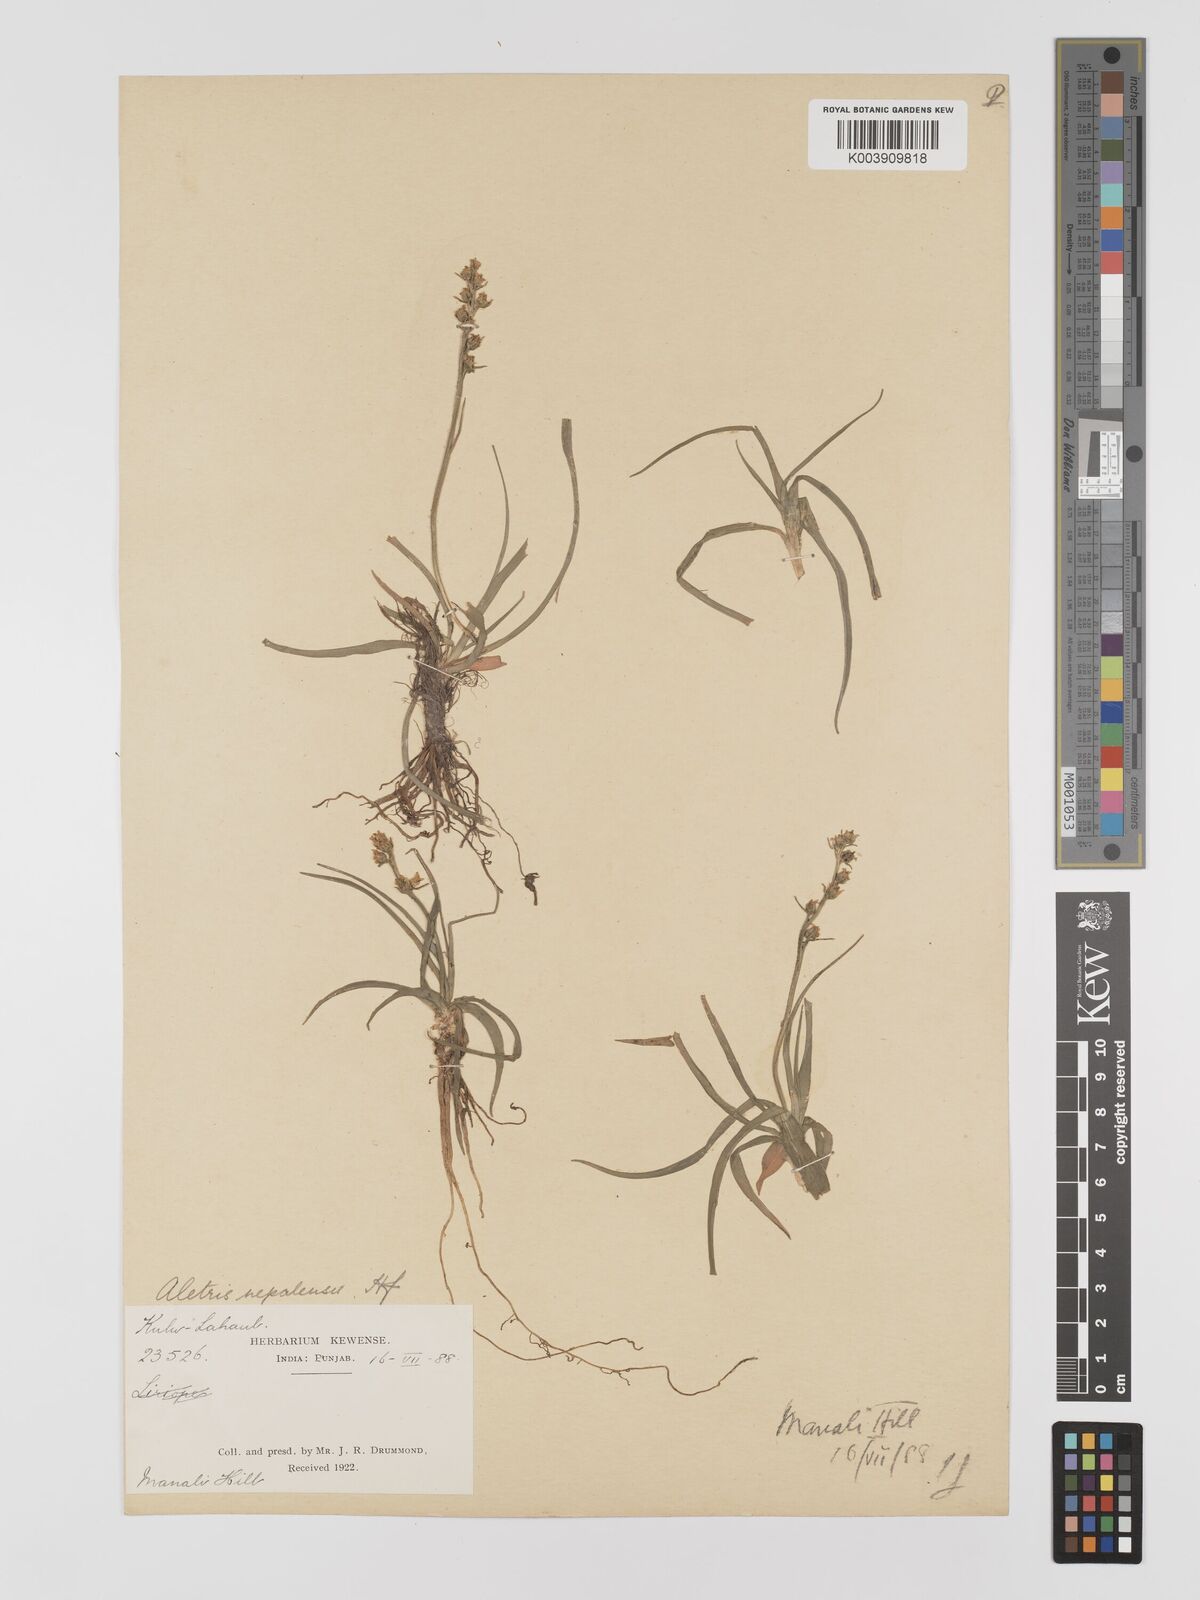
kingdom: Plantae
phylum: Tracheophyta
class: Liliopsida
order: Dioscoreales
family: Nartheciaceae
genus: Aletris
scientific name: Aletris pauciflora
